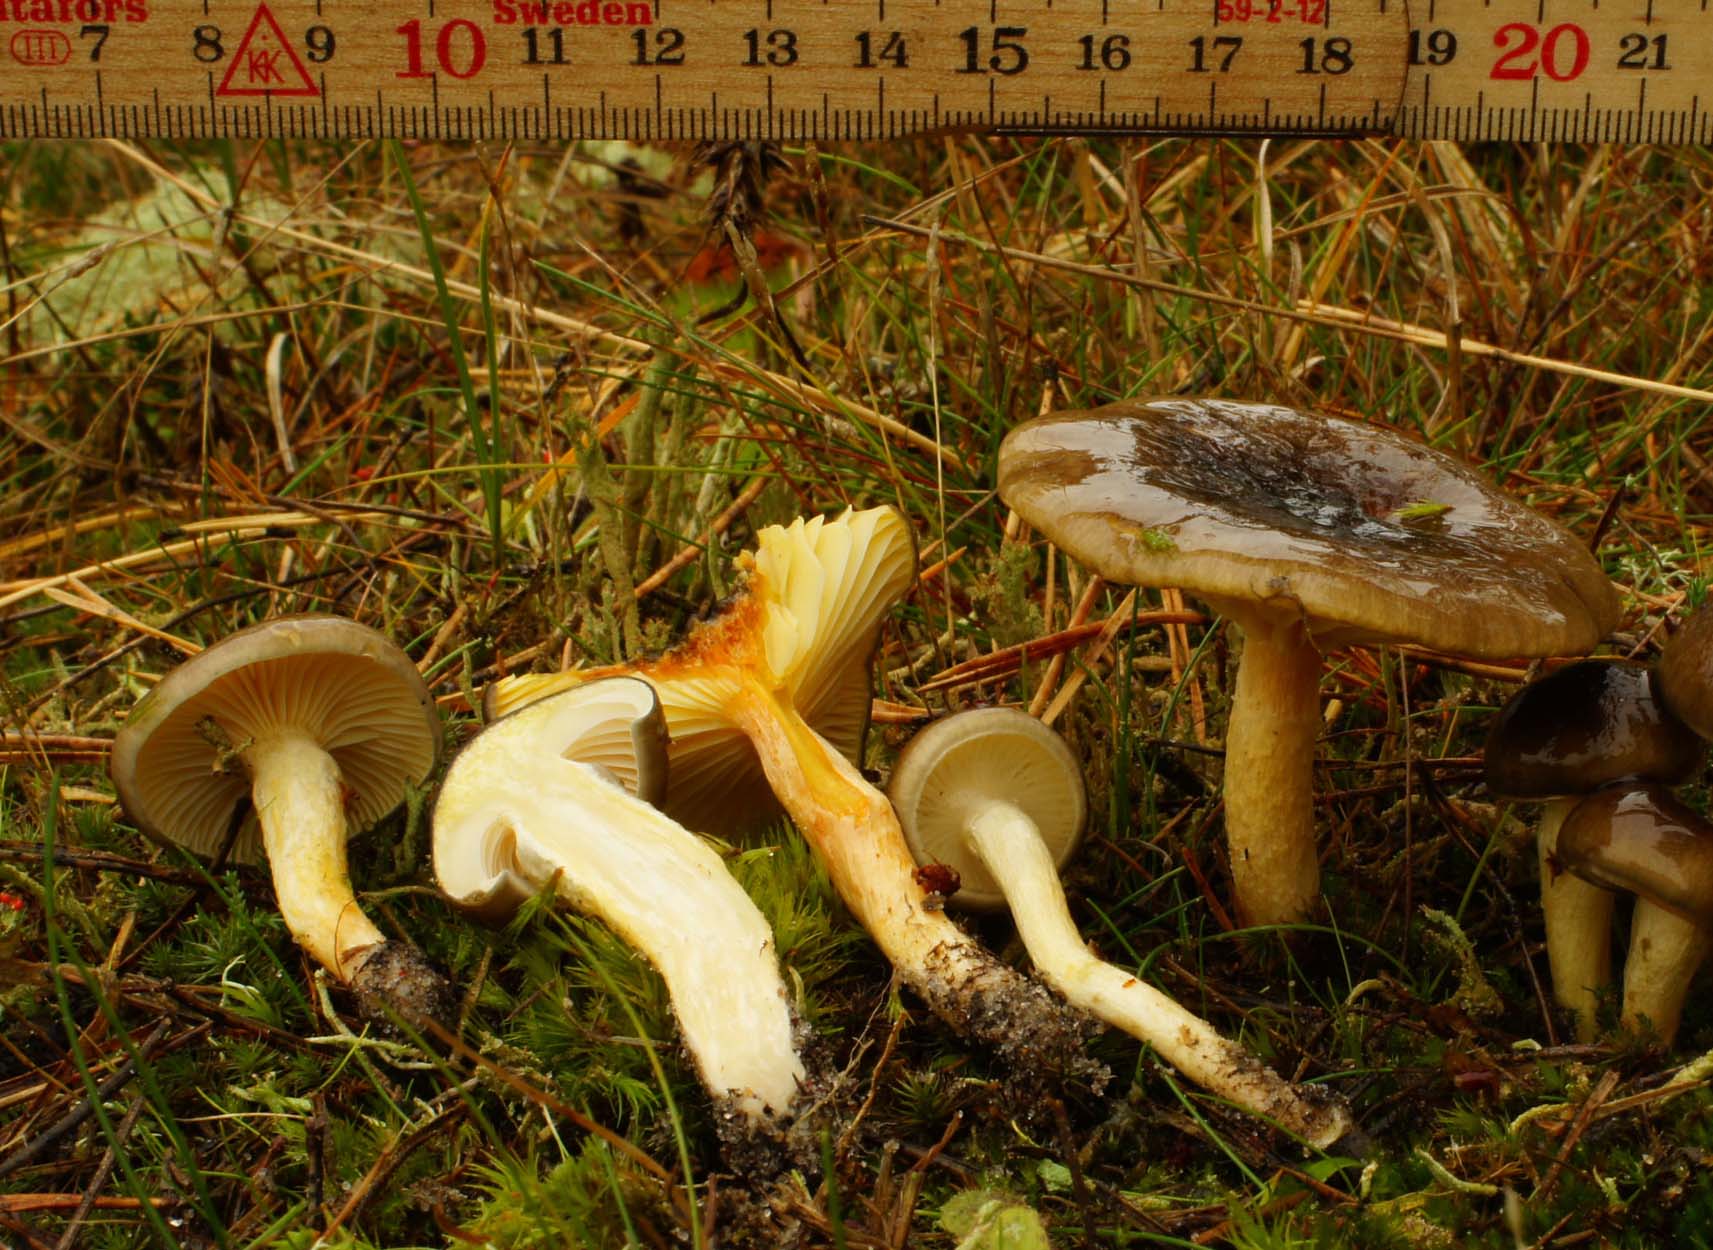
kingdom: Fungi
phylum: Basidiomycota
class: Agaricomycetes
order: Agaricales
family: Hygrophoraceae
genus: Hygrophorus
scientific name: Hygrophorus hypothejus
